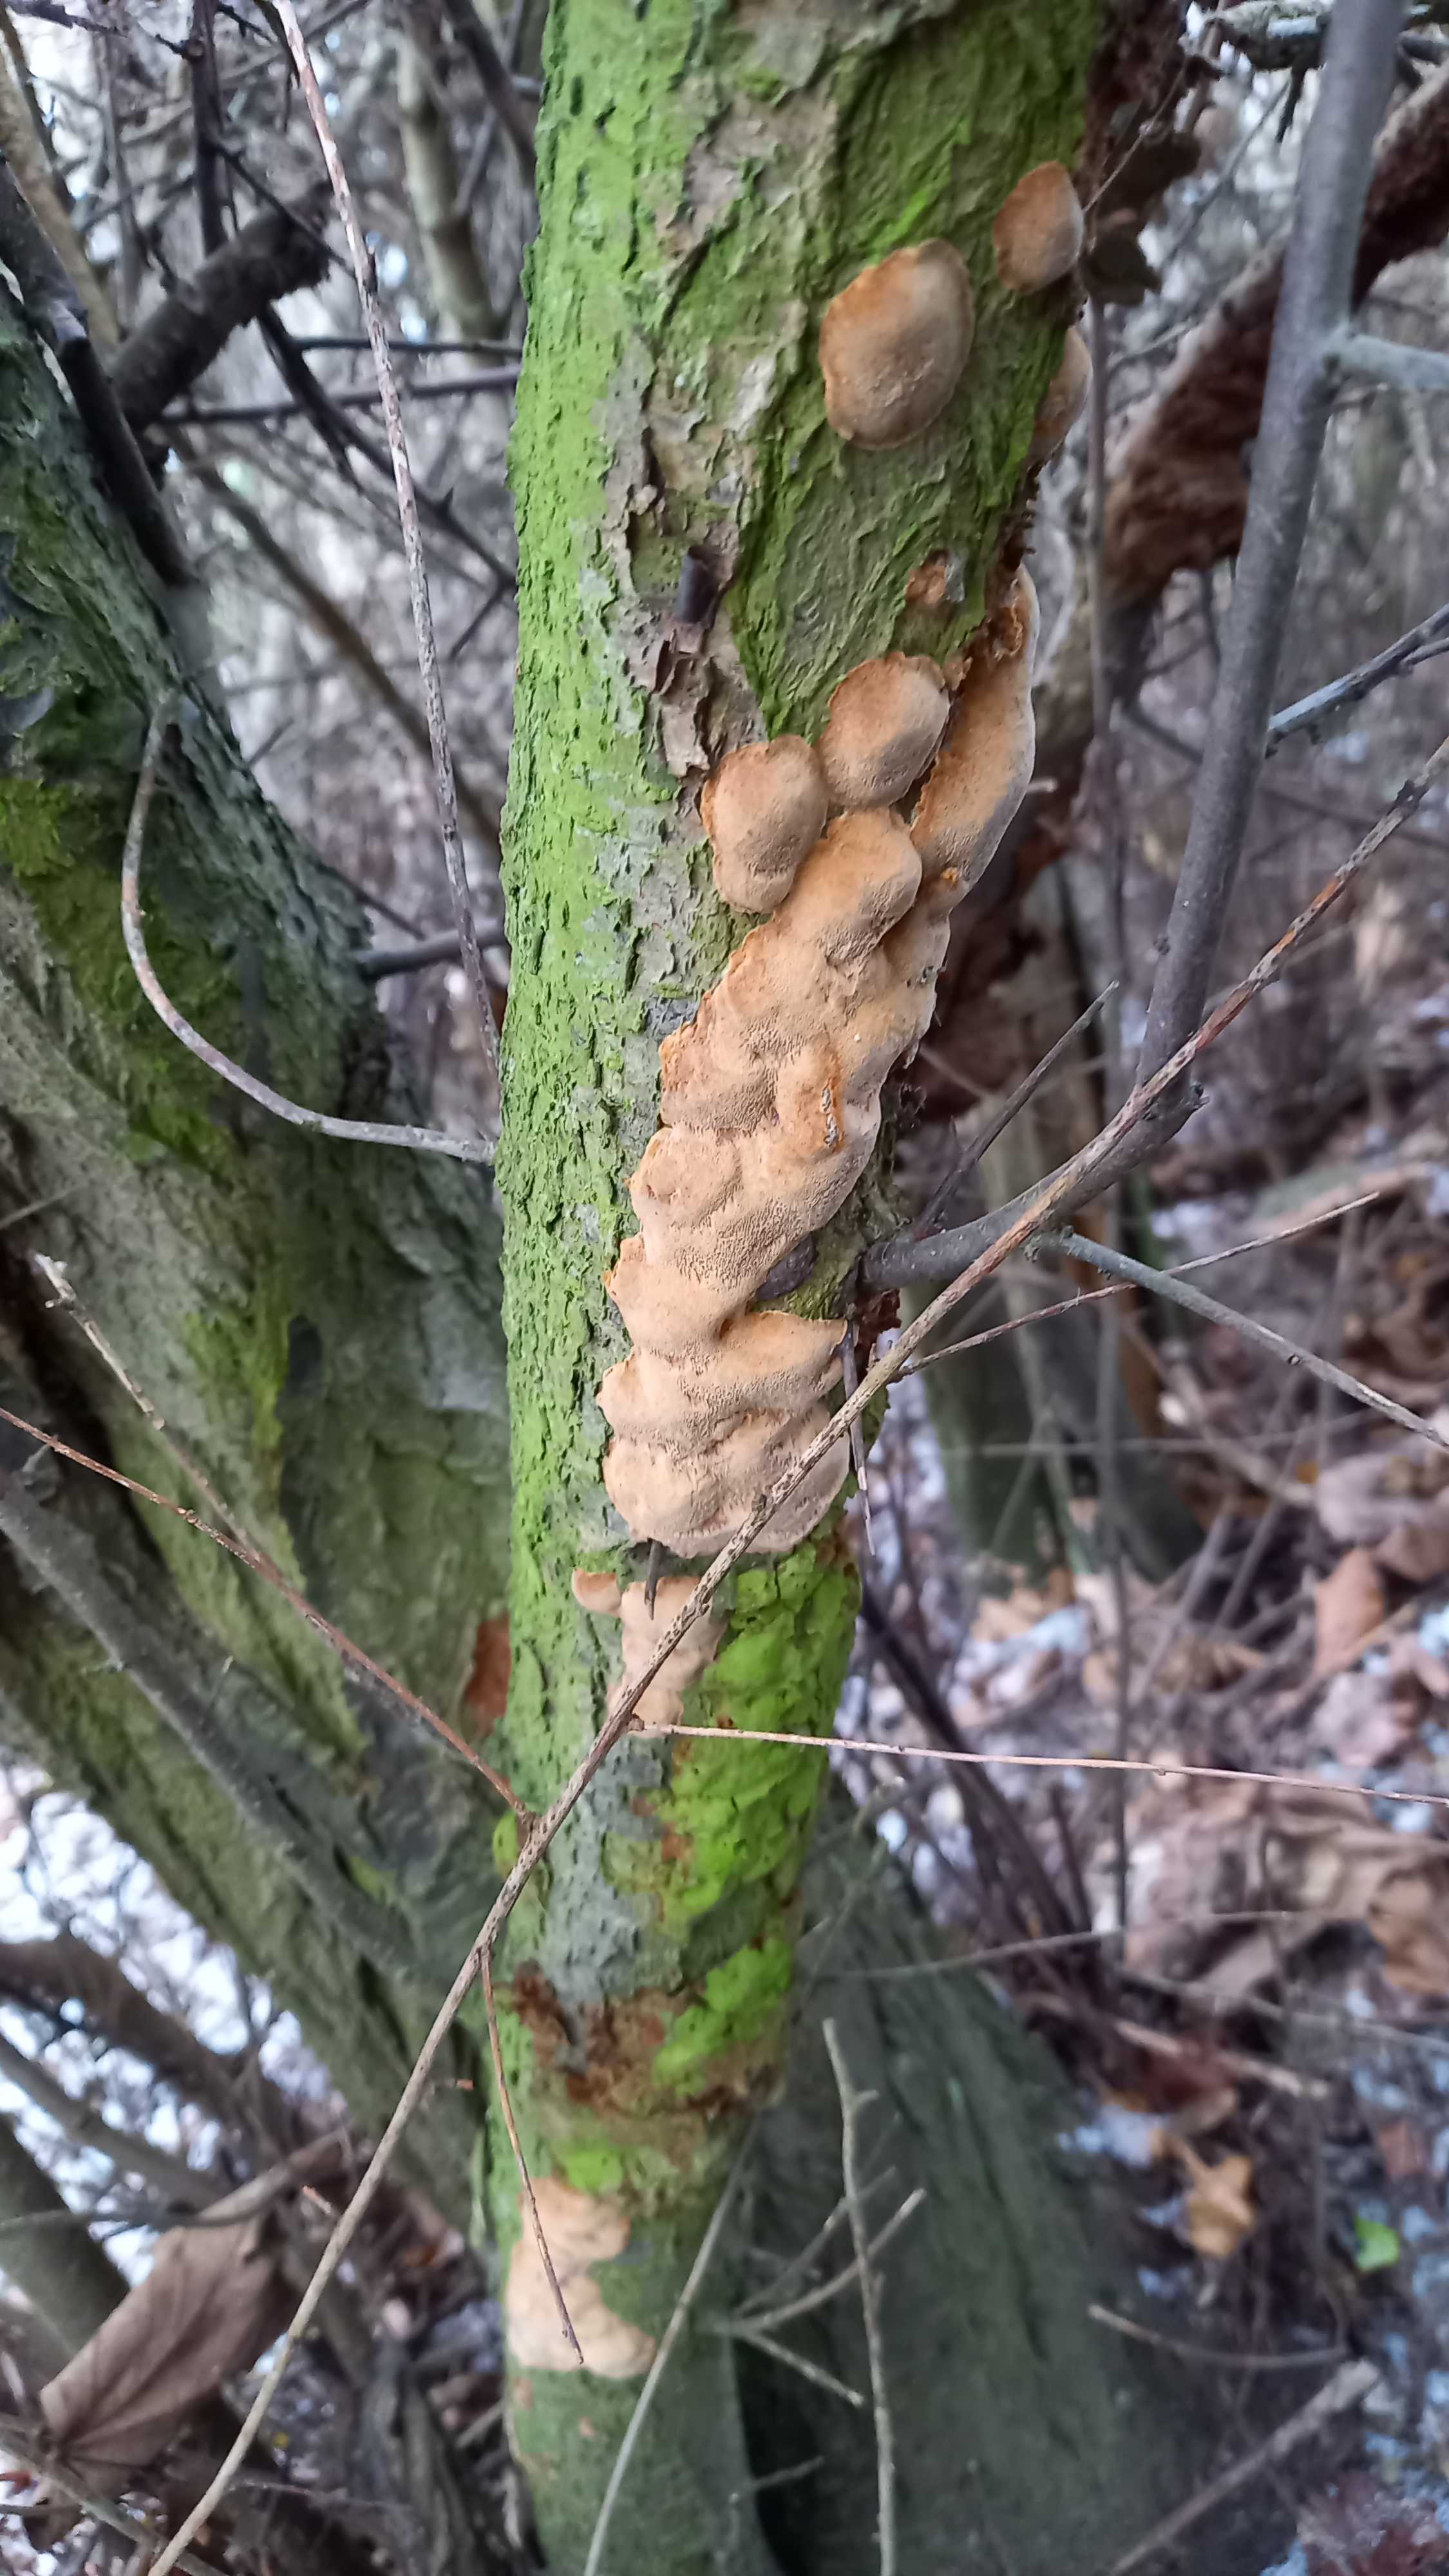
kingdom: Fungi
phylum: Basidiomycota
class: Agaricomycetes
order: Hymenochaetales
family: Hymenochaetaceae
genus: Phellinus
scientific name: Phellinus pomaceus
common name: blomme-ildporesvamp
